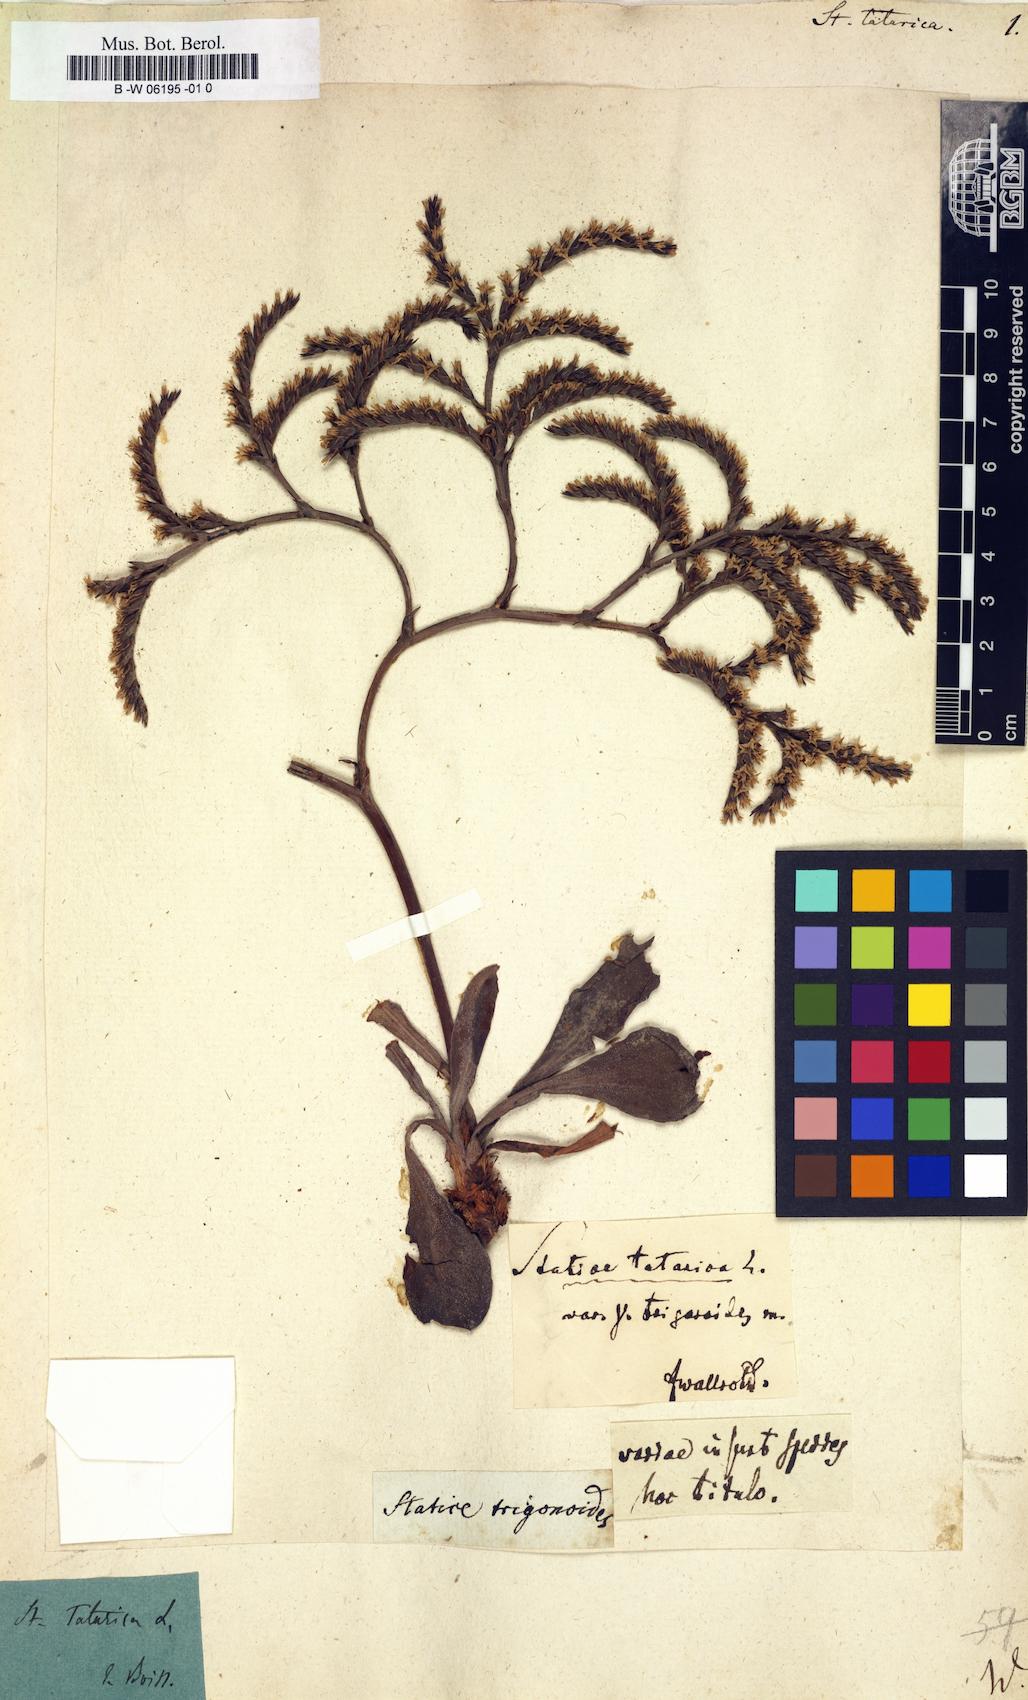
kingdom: Plantae
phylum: Tracheophyta
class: Magnoliopsida
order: Caryophyllales
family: Plumbaginaceae
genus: Goniolimon
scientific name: Goniolimon tataricum
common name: Statice
